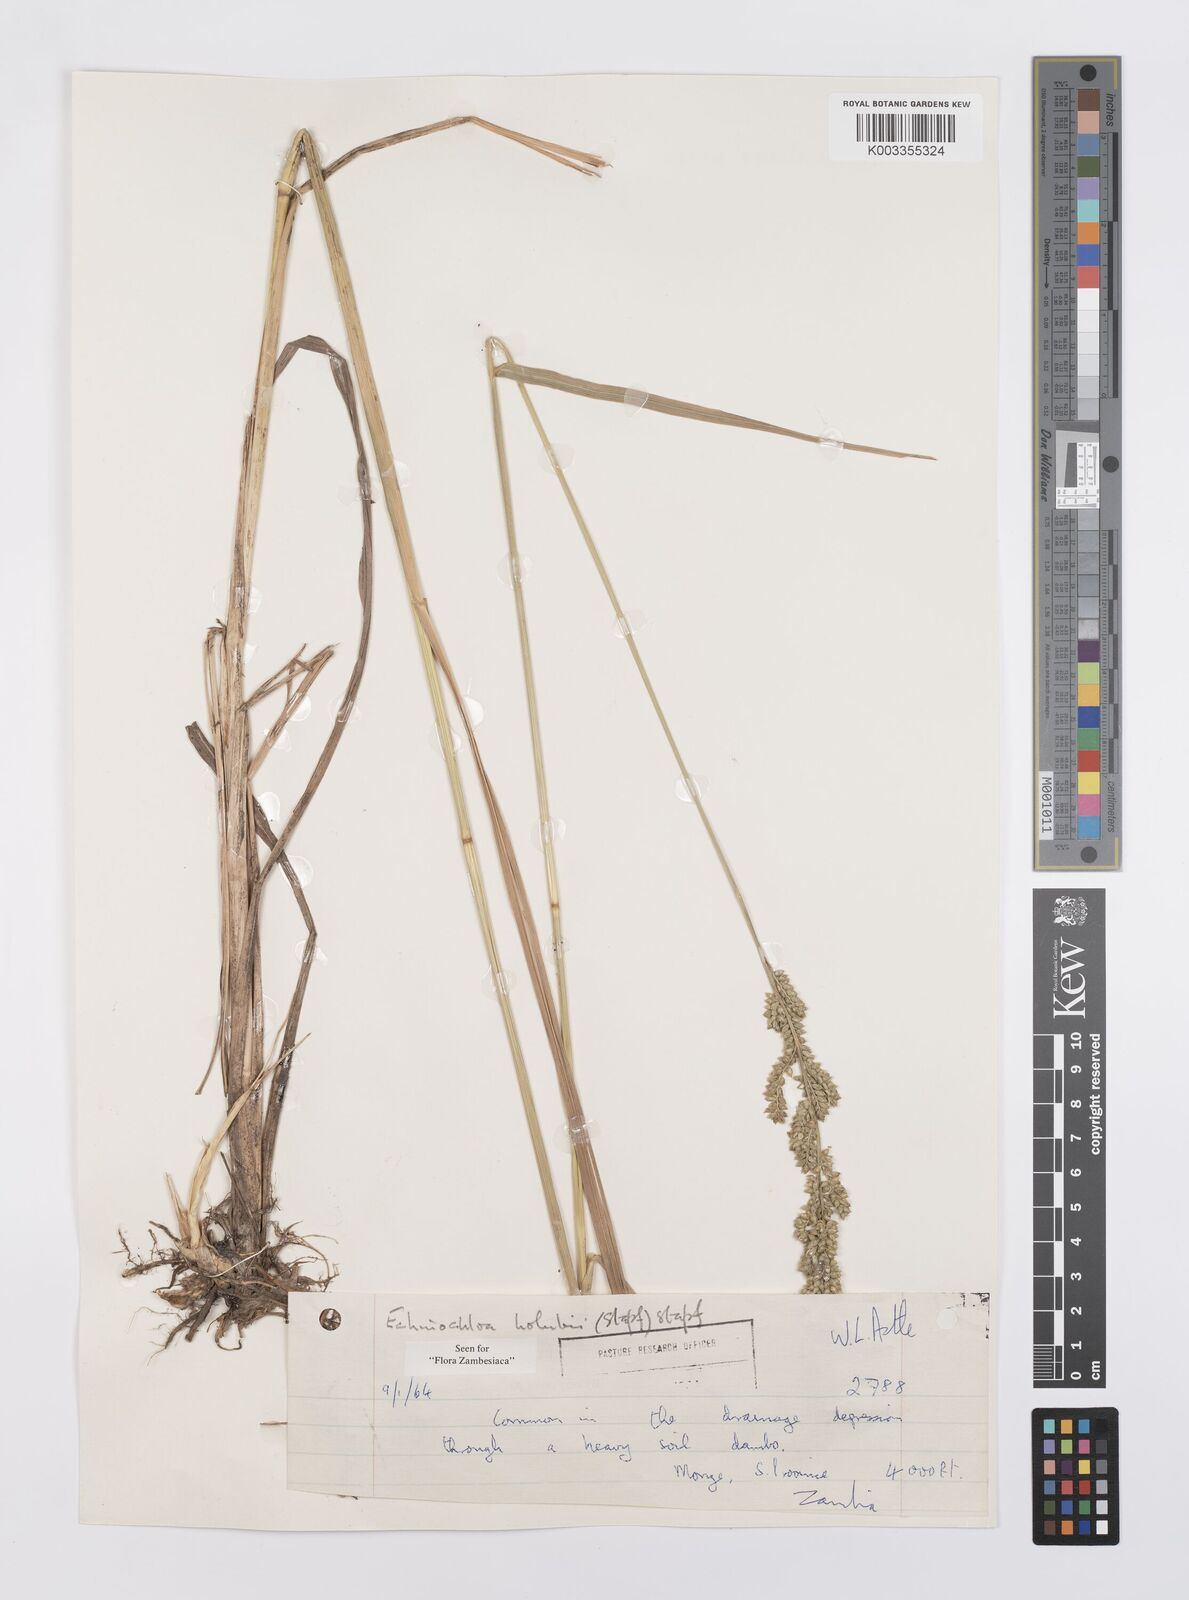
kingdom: Plantae
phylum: Tracheophyta
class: Liliopsida
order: Poales
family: Poaceae
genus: Echinochloa
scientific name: Echinochloa pyramidalis
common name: Antelope grass
